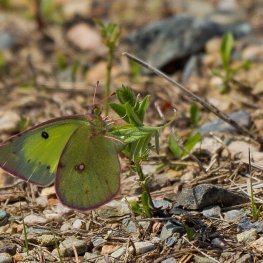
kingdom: Animalia
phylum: Arthropoda
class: Insecta
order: Lepidoptera
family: Pieridae
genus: Colias
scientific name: Colias philodice
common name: Clouded Sulphur
